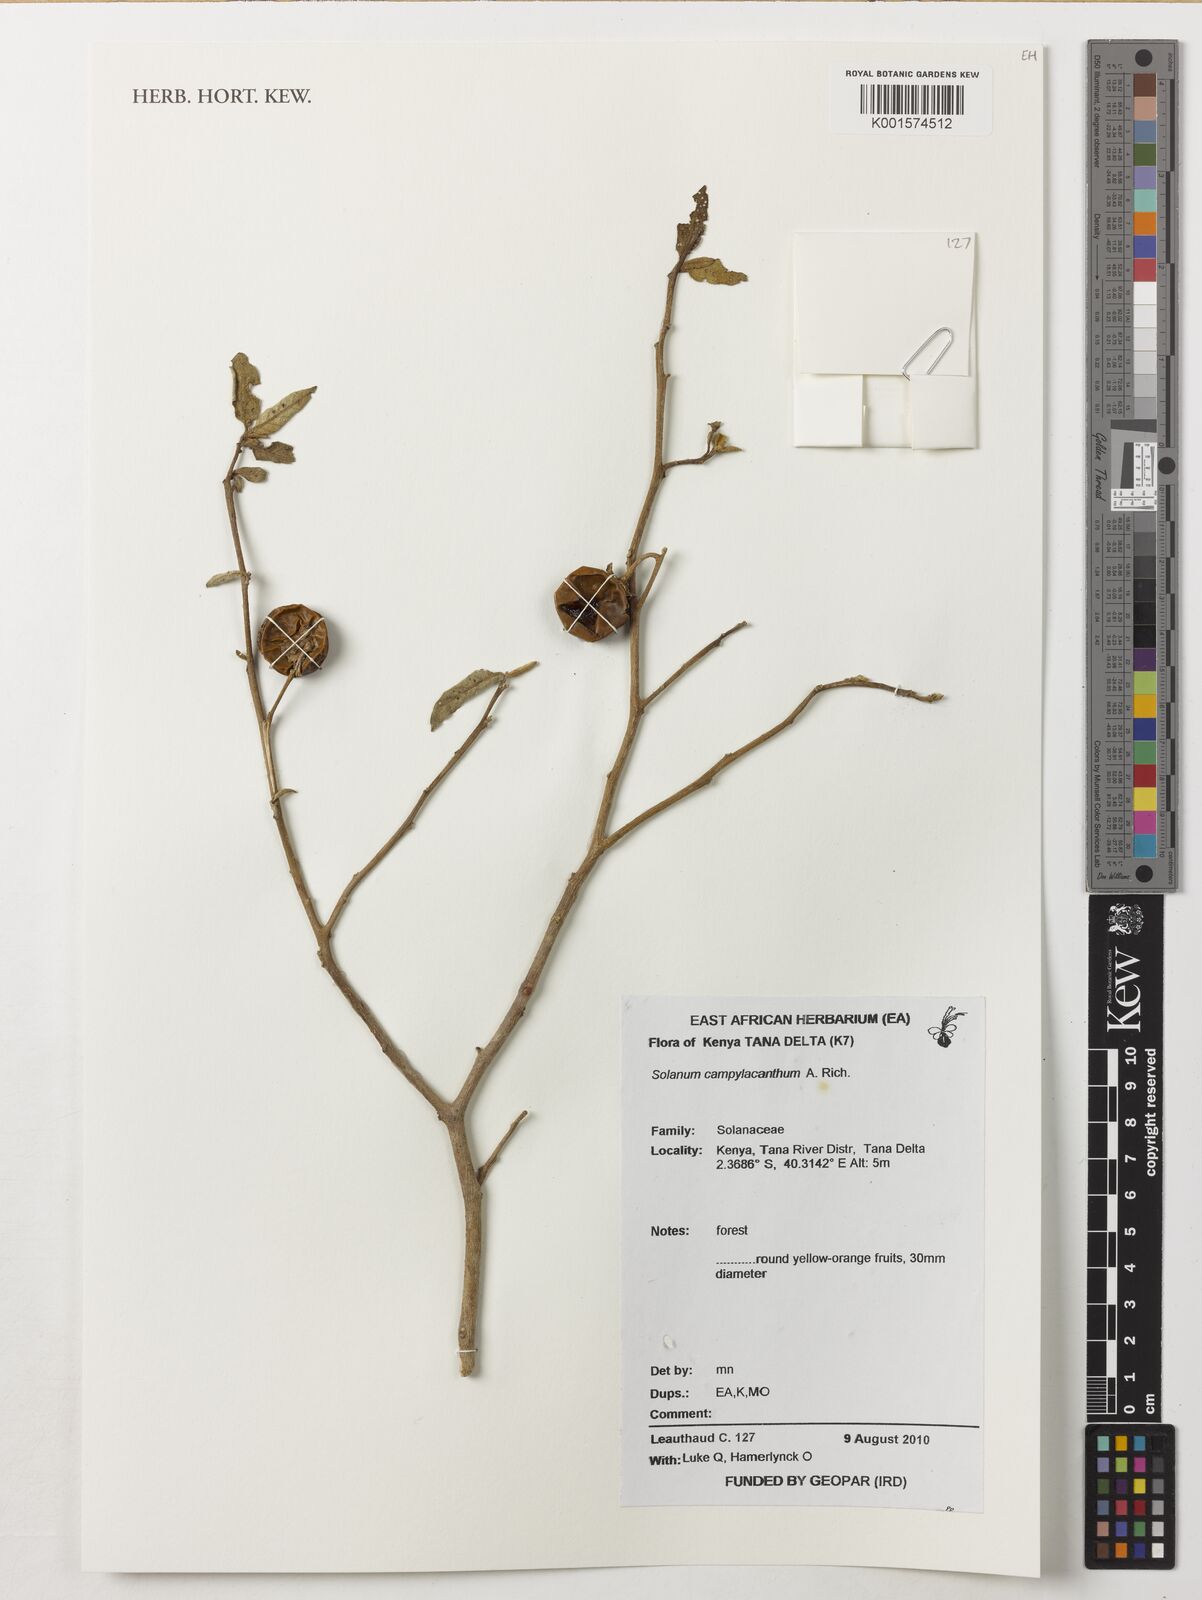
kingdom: Plantae
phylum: Tracheophyta
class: Magnoliopsida
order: Solanales
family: Solanaceae
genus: Solanum
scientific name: Solanum campylacanthum
